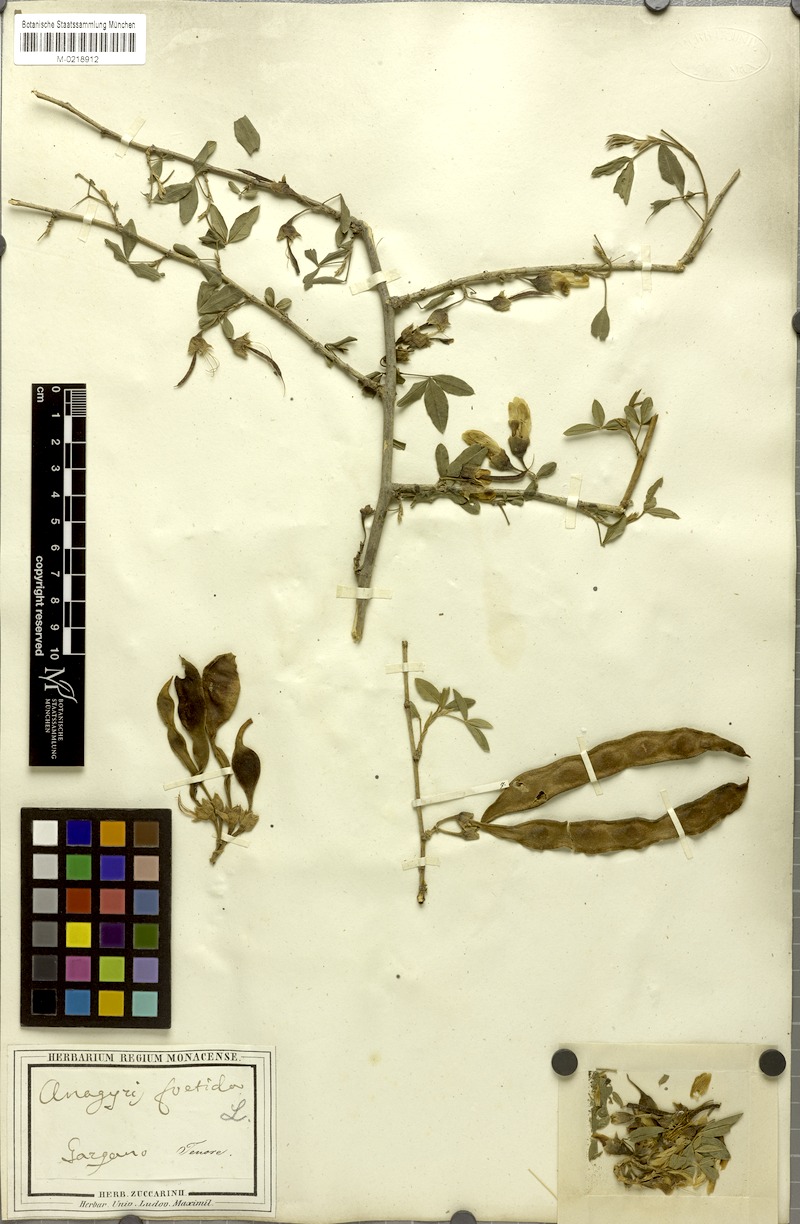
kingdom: Plantae
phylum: Tracheophyta
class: Magnoliopsida
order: Fabales
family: Fabaceae
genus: Anagyris
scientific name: Anagyris foetida
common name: Stinking bean trefoil
